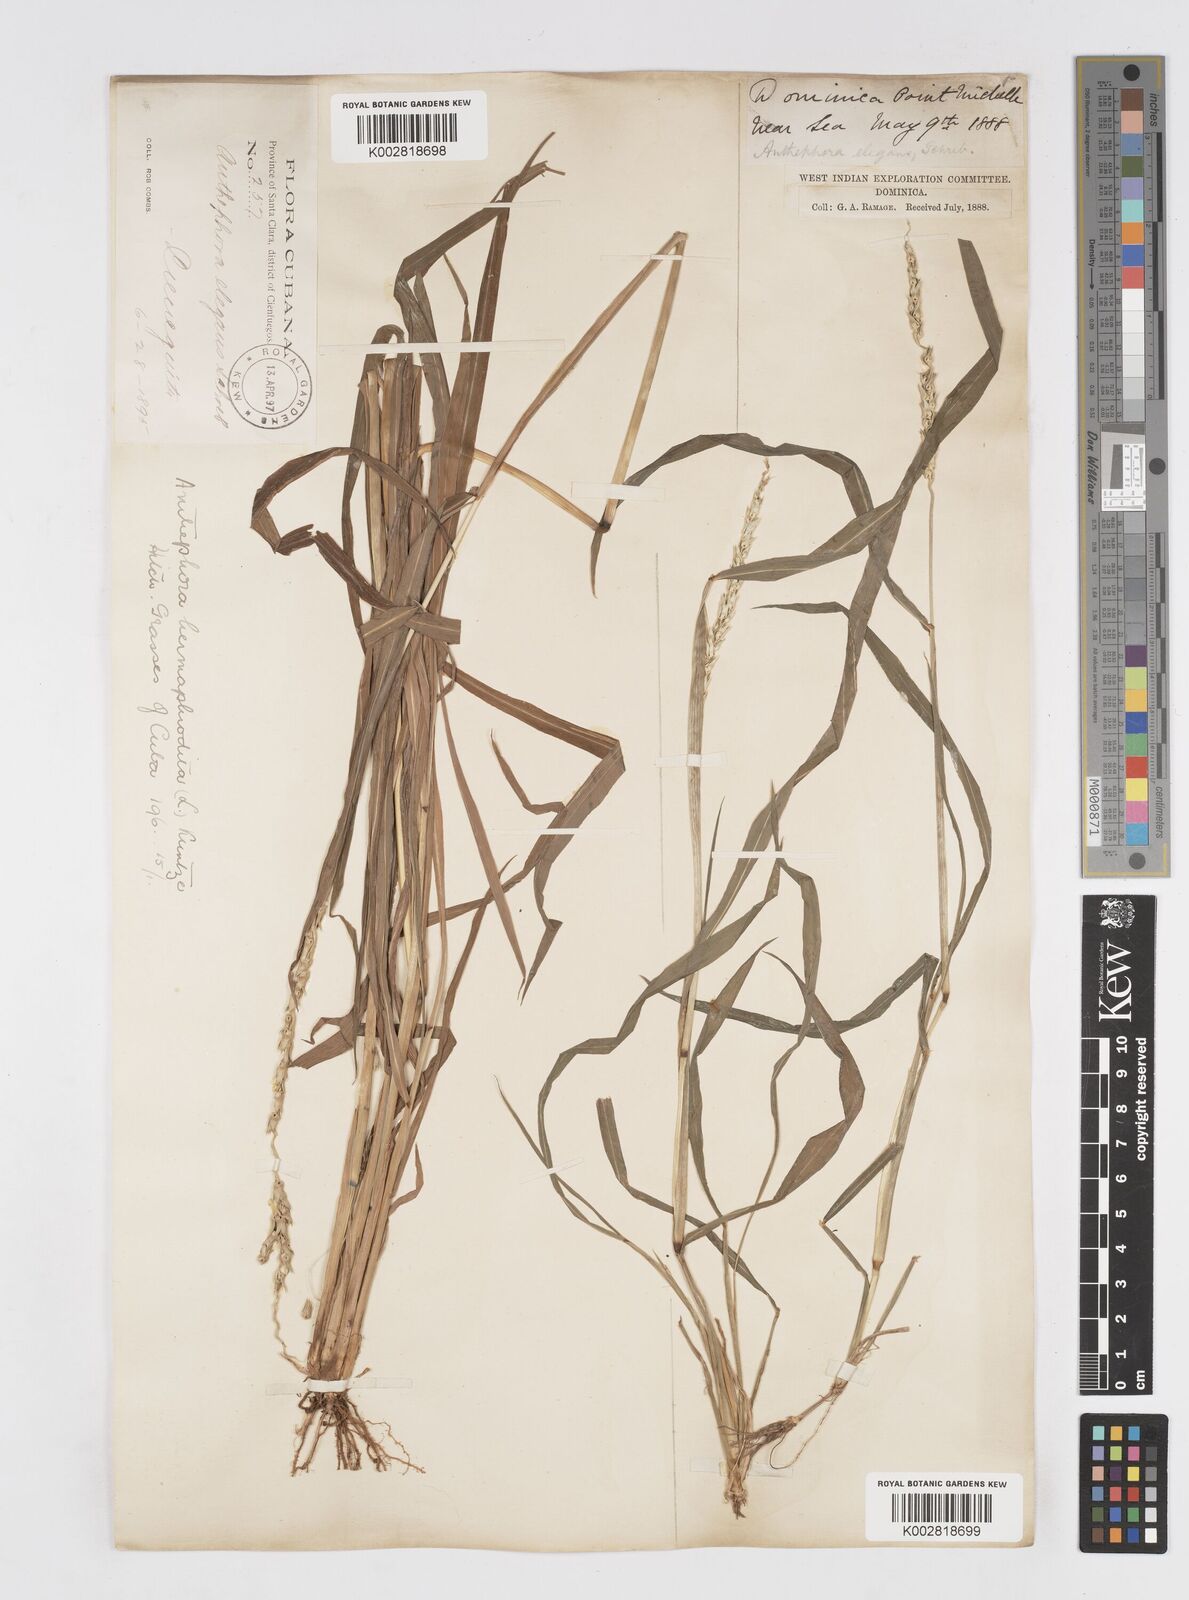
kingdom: Plantae
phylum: Tracheophyta
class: Liliopsida
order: Poales
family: Poaceae
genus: Anthephora
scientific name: Anthephora hermaphrodita
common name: Oldfield grass
